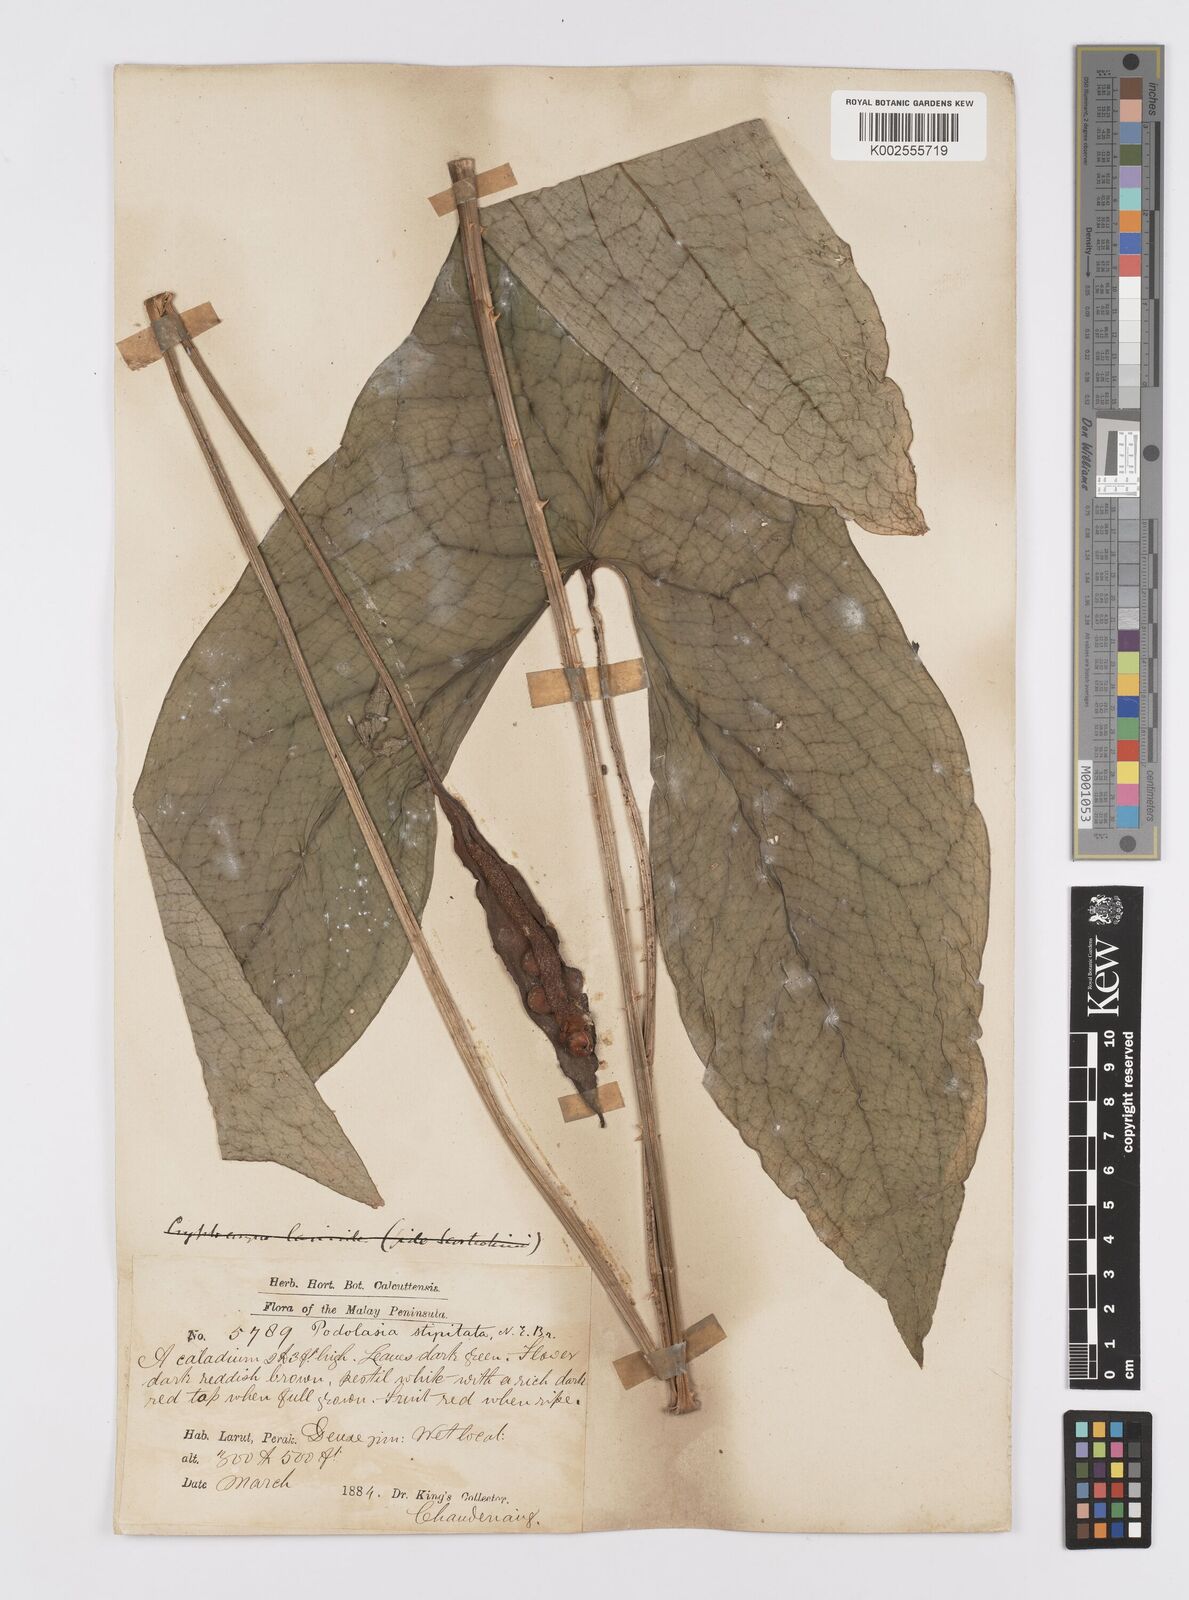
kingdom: Plantae
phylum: Tracheophyta
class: Liliopsida
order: Alismatales
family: Araceae
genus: Podolasia
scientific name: Podolasia stipitata
